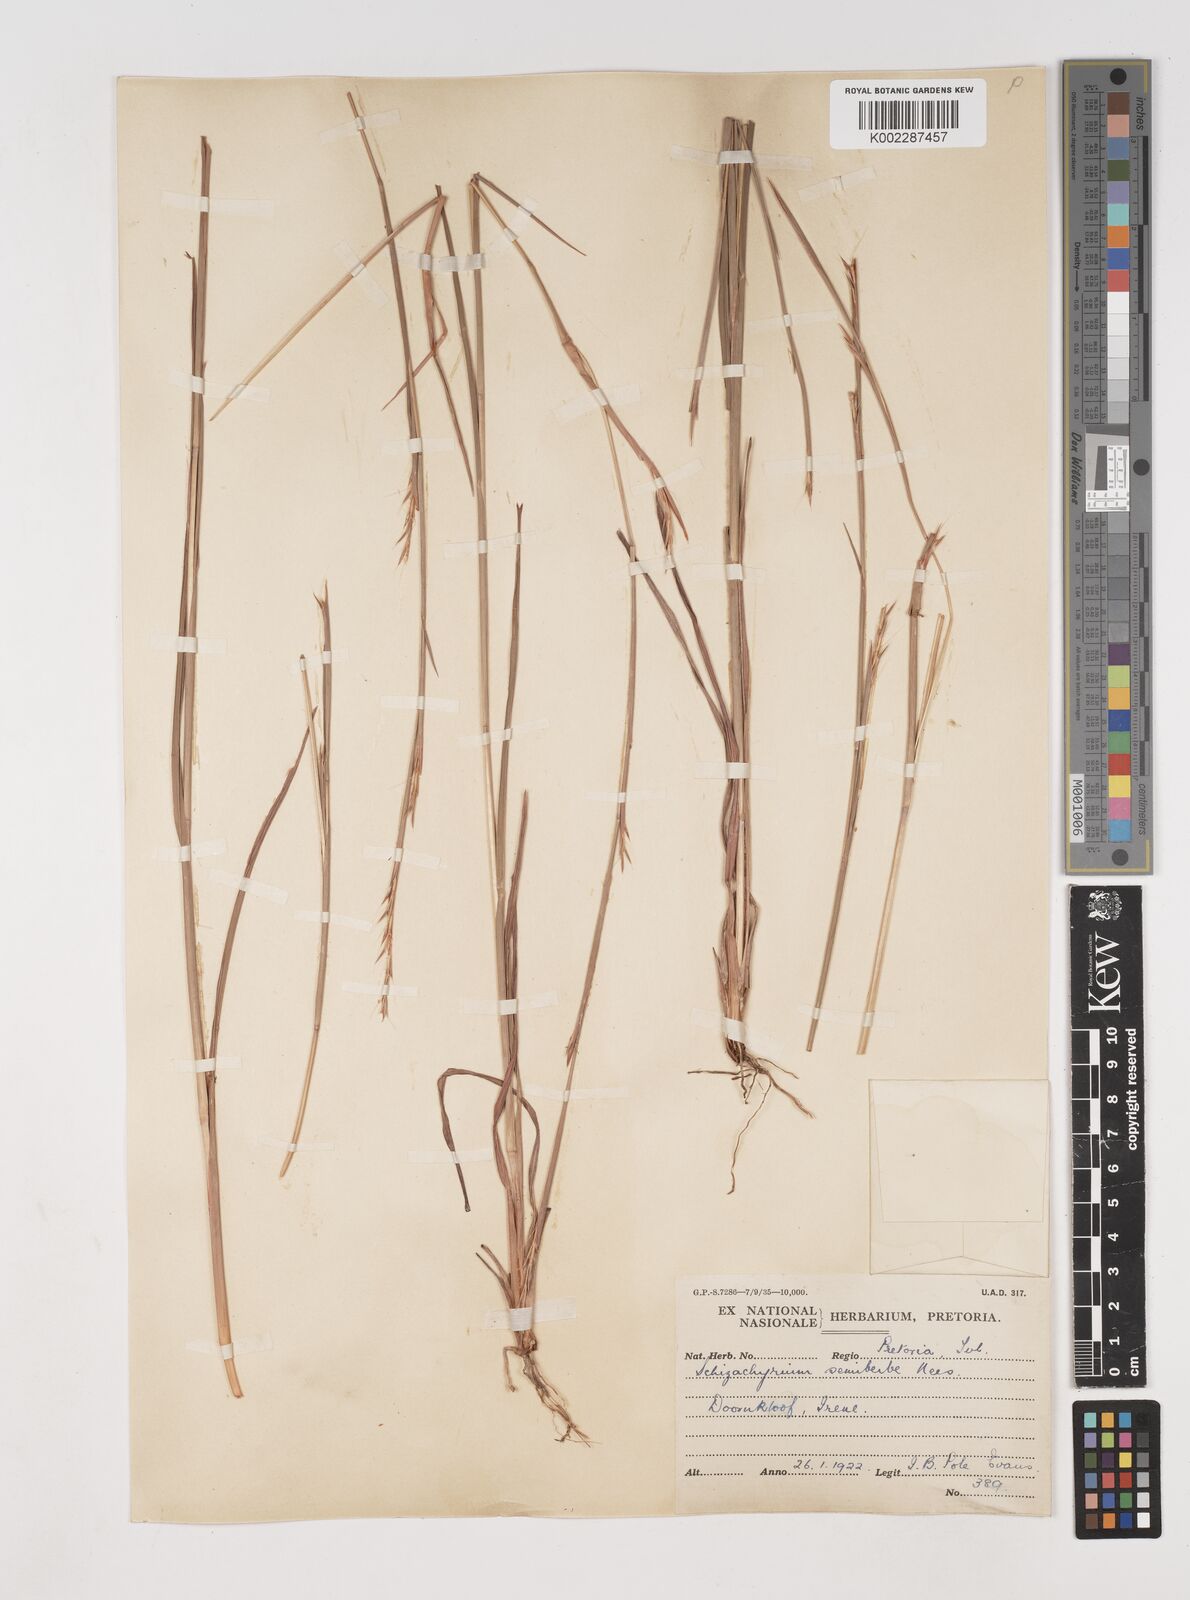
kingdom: Plantae
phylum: Tracheophyta
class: Liliopsida
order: Poales
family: Poaceae
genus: Schizachyrium
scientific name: Schizachyrium sanguineum
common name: Crimson bluestem
